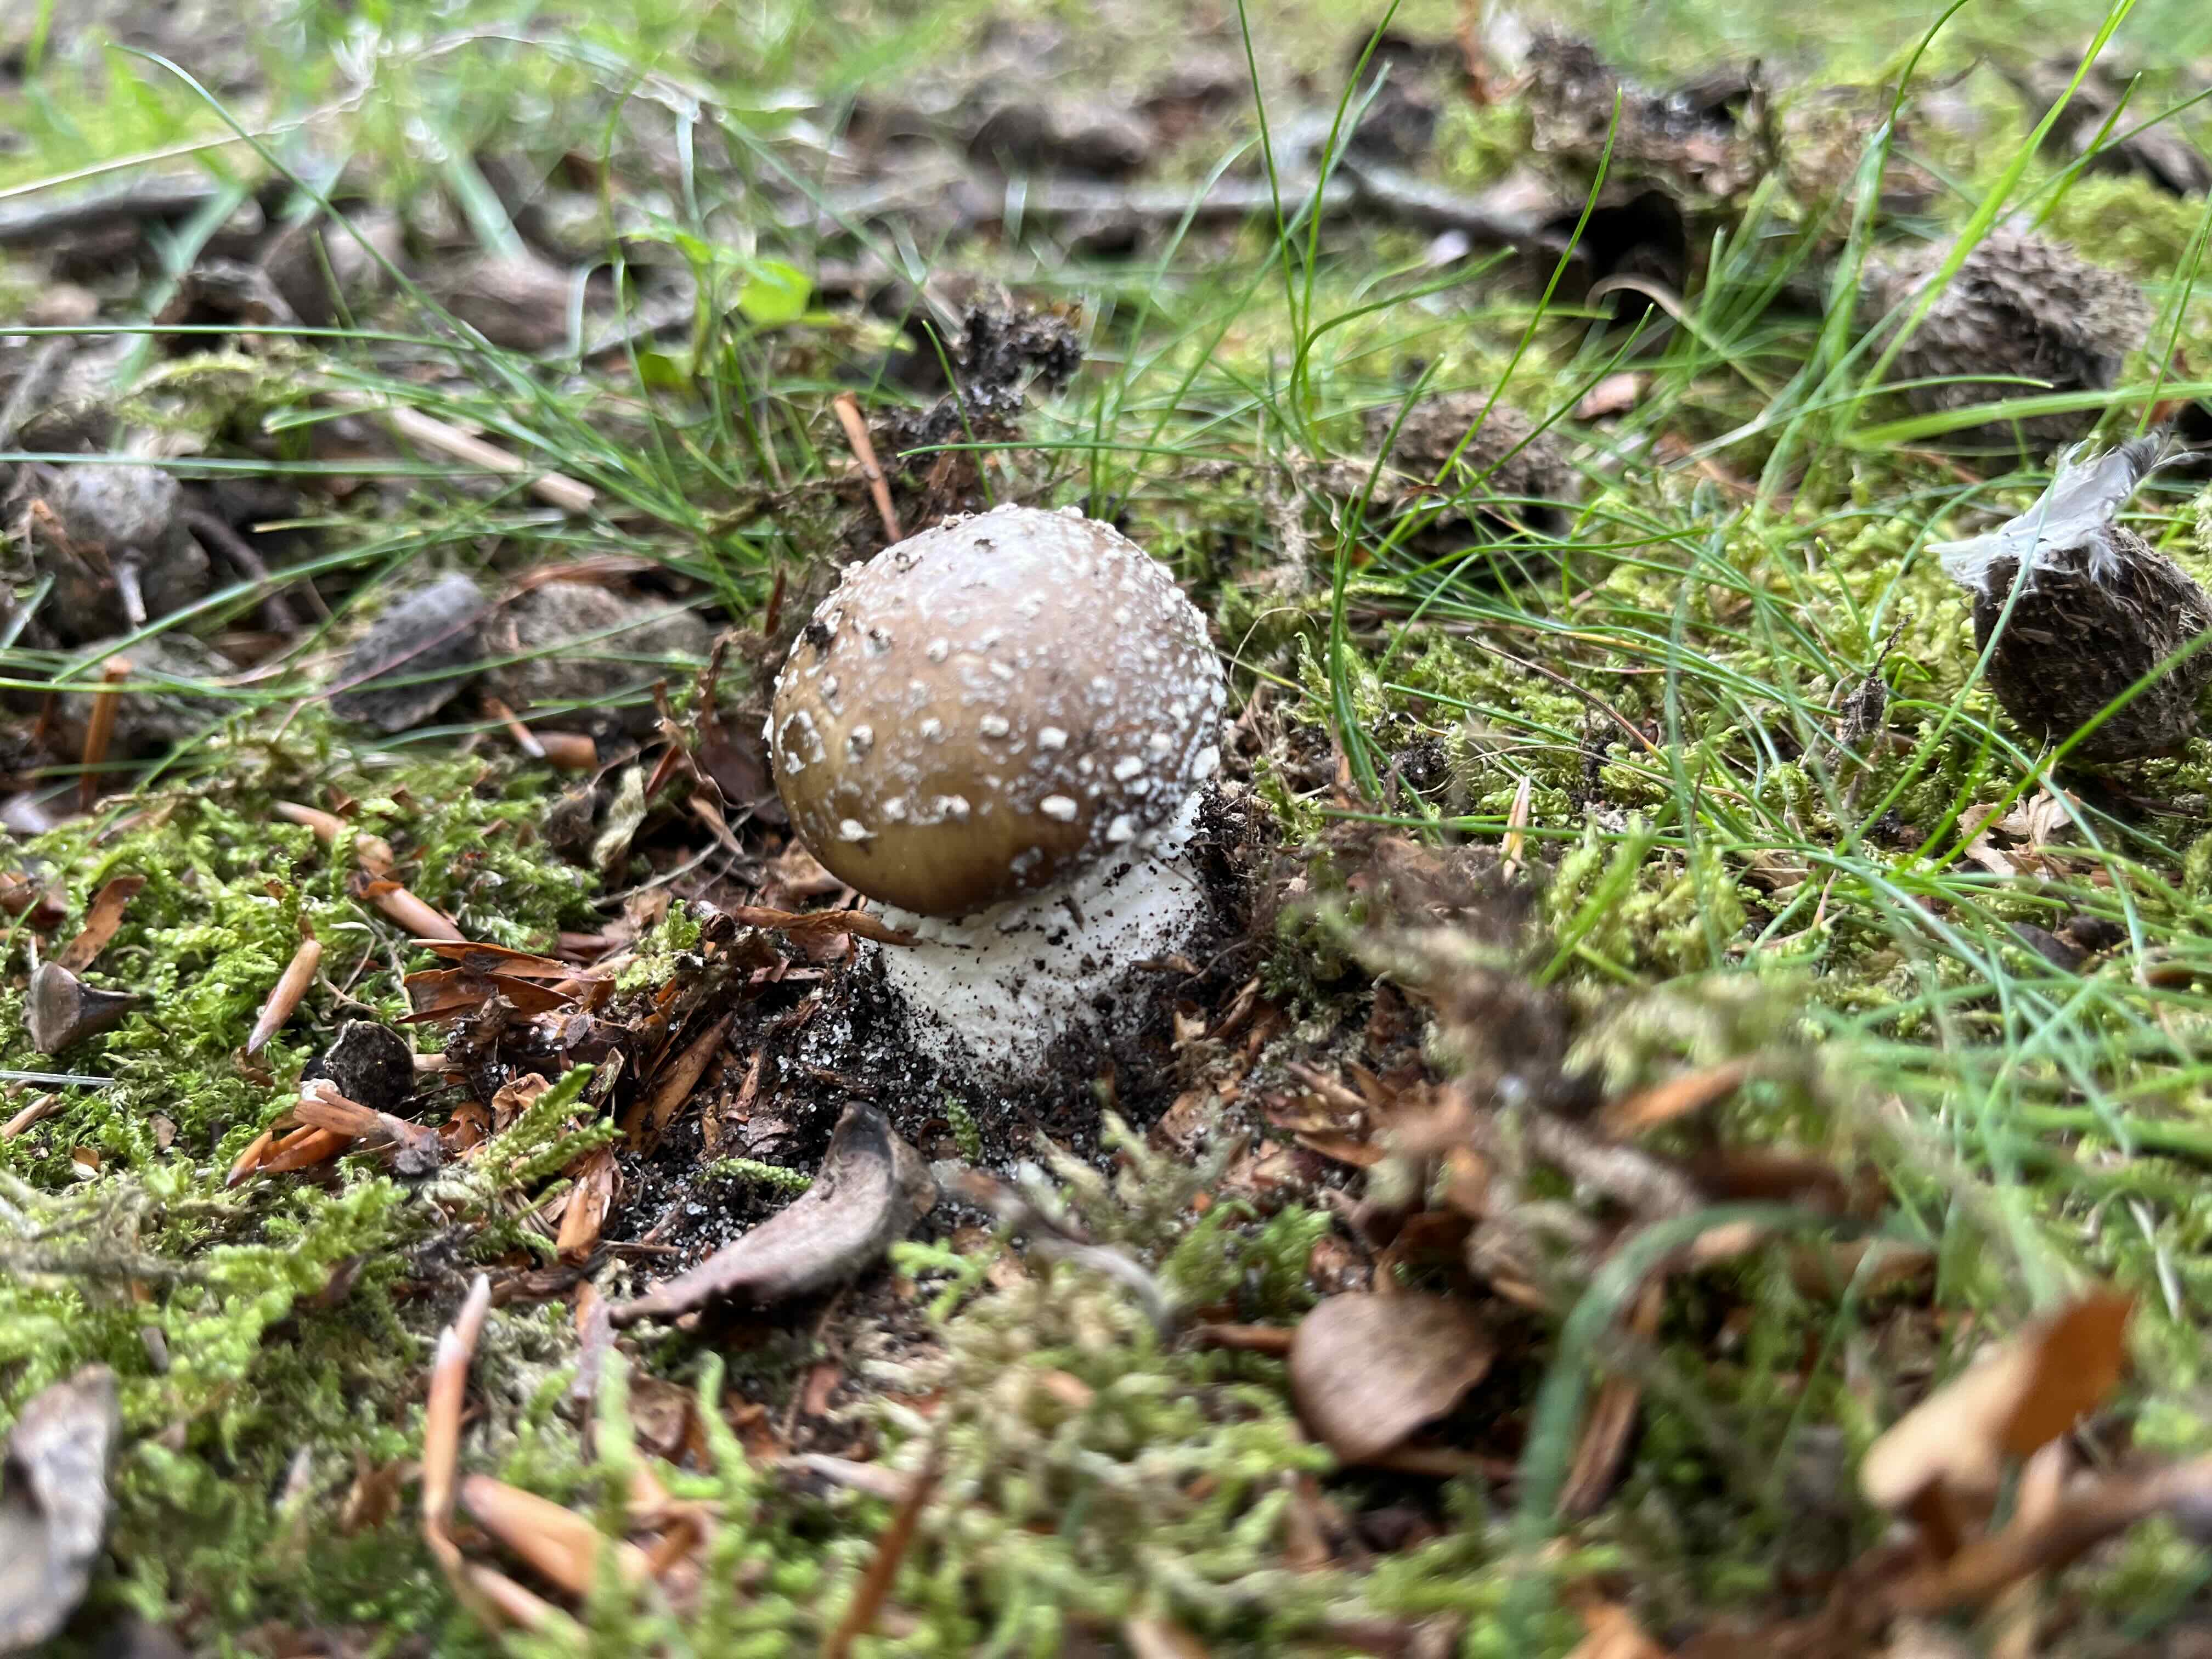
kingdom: Fungi
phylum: Basidiomycota
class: Agaricomycetes
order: Agaricales
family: Amanitaceae
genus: Amanita
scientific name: Amanita pantherina
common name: panter-fluesvamp
